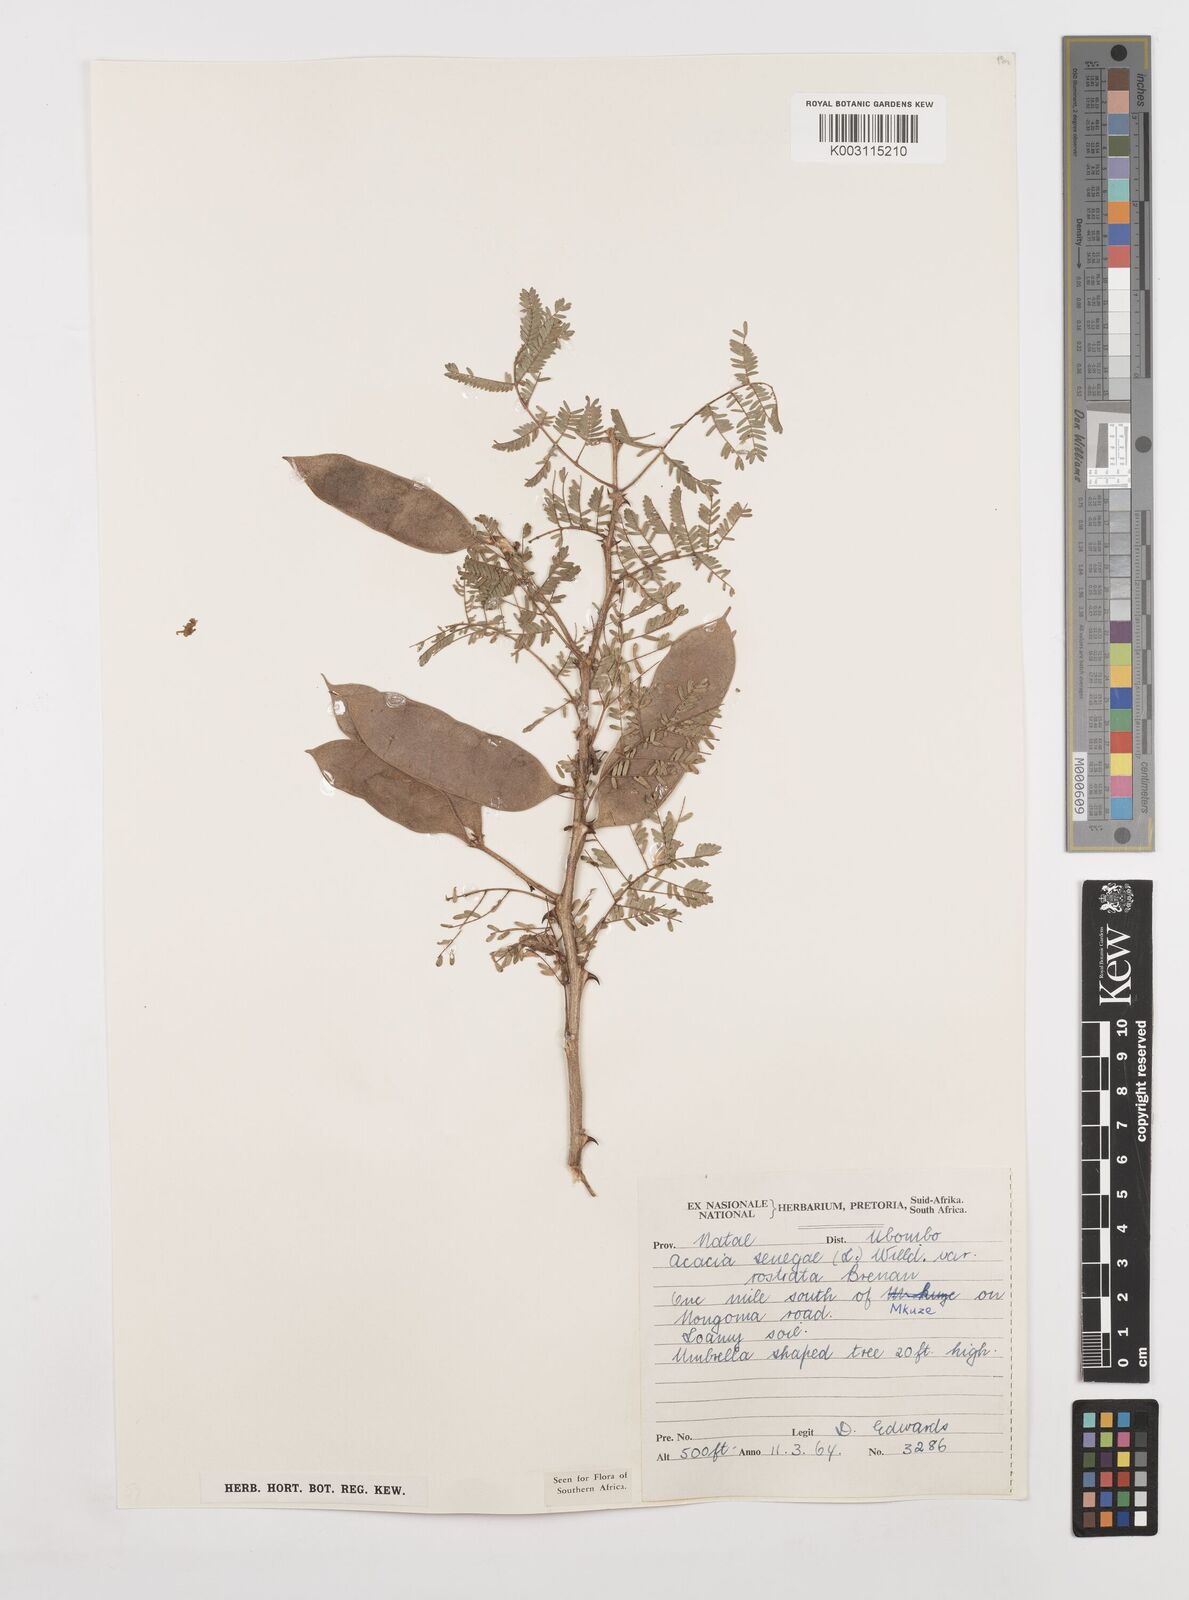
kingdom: Plantae
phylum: Tracheophyta
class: Magnoliopsida
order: Fabales
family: Fabaceae
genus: Senegalia
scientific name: Senegalia senegal
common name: Senegal-gum
